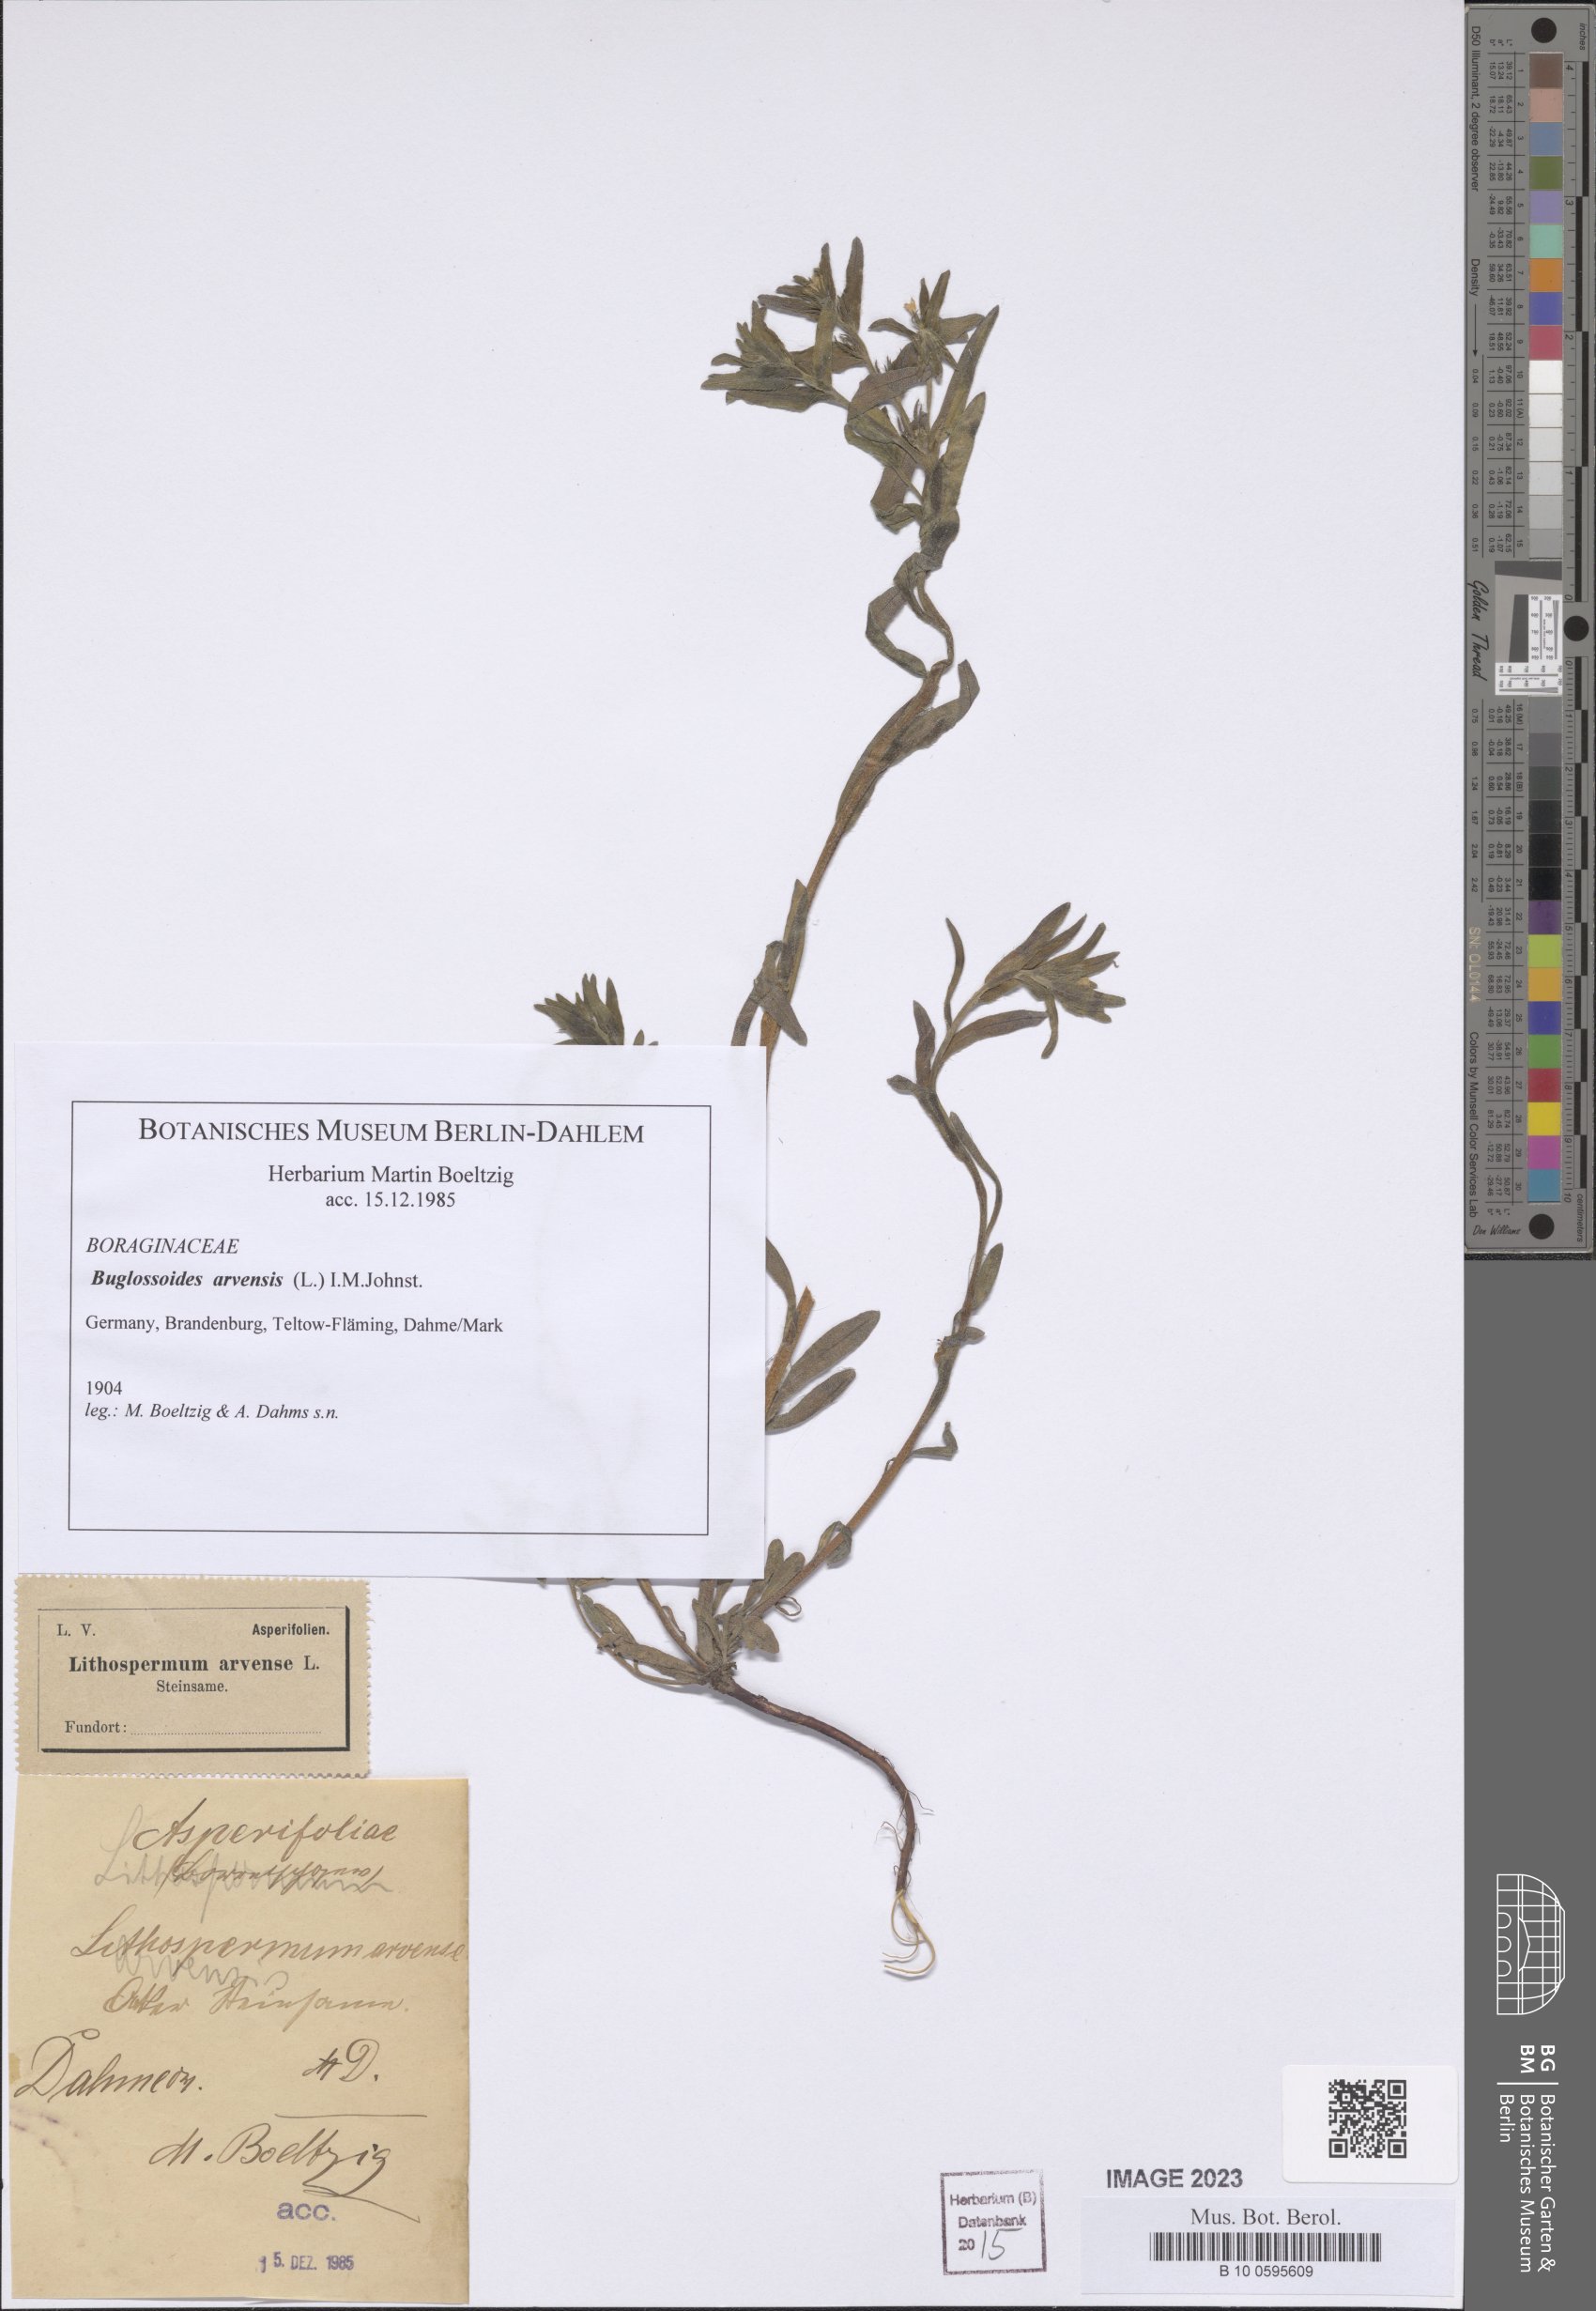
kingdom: Plantae
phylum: Tracheophyta
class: Magnoliopsida
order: Boraginales
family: Boraginaceae
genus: Buglossoides
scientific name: Buglossoides arvensis
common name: Corn gromwell
